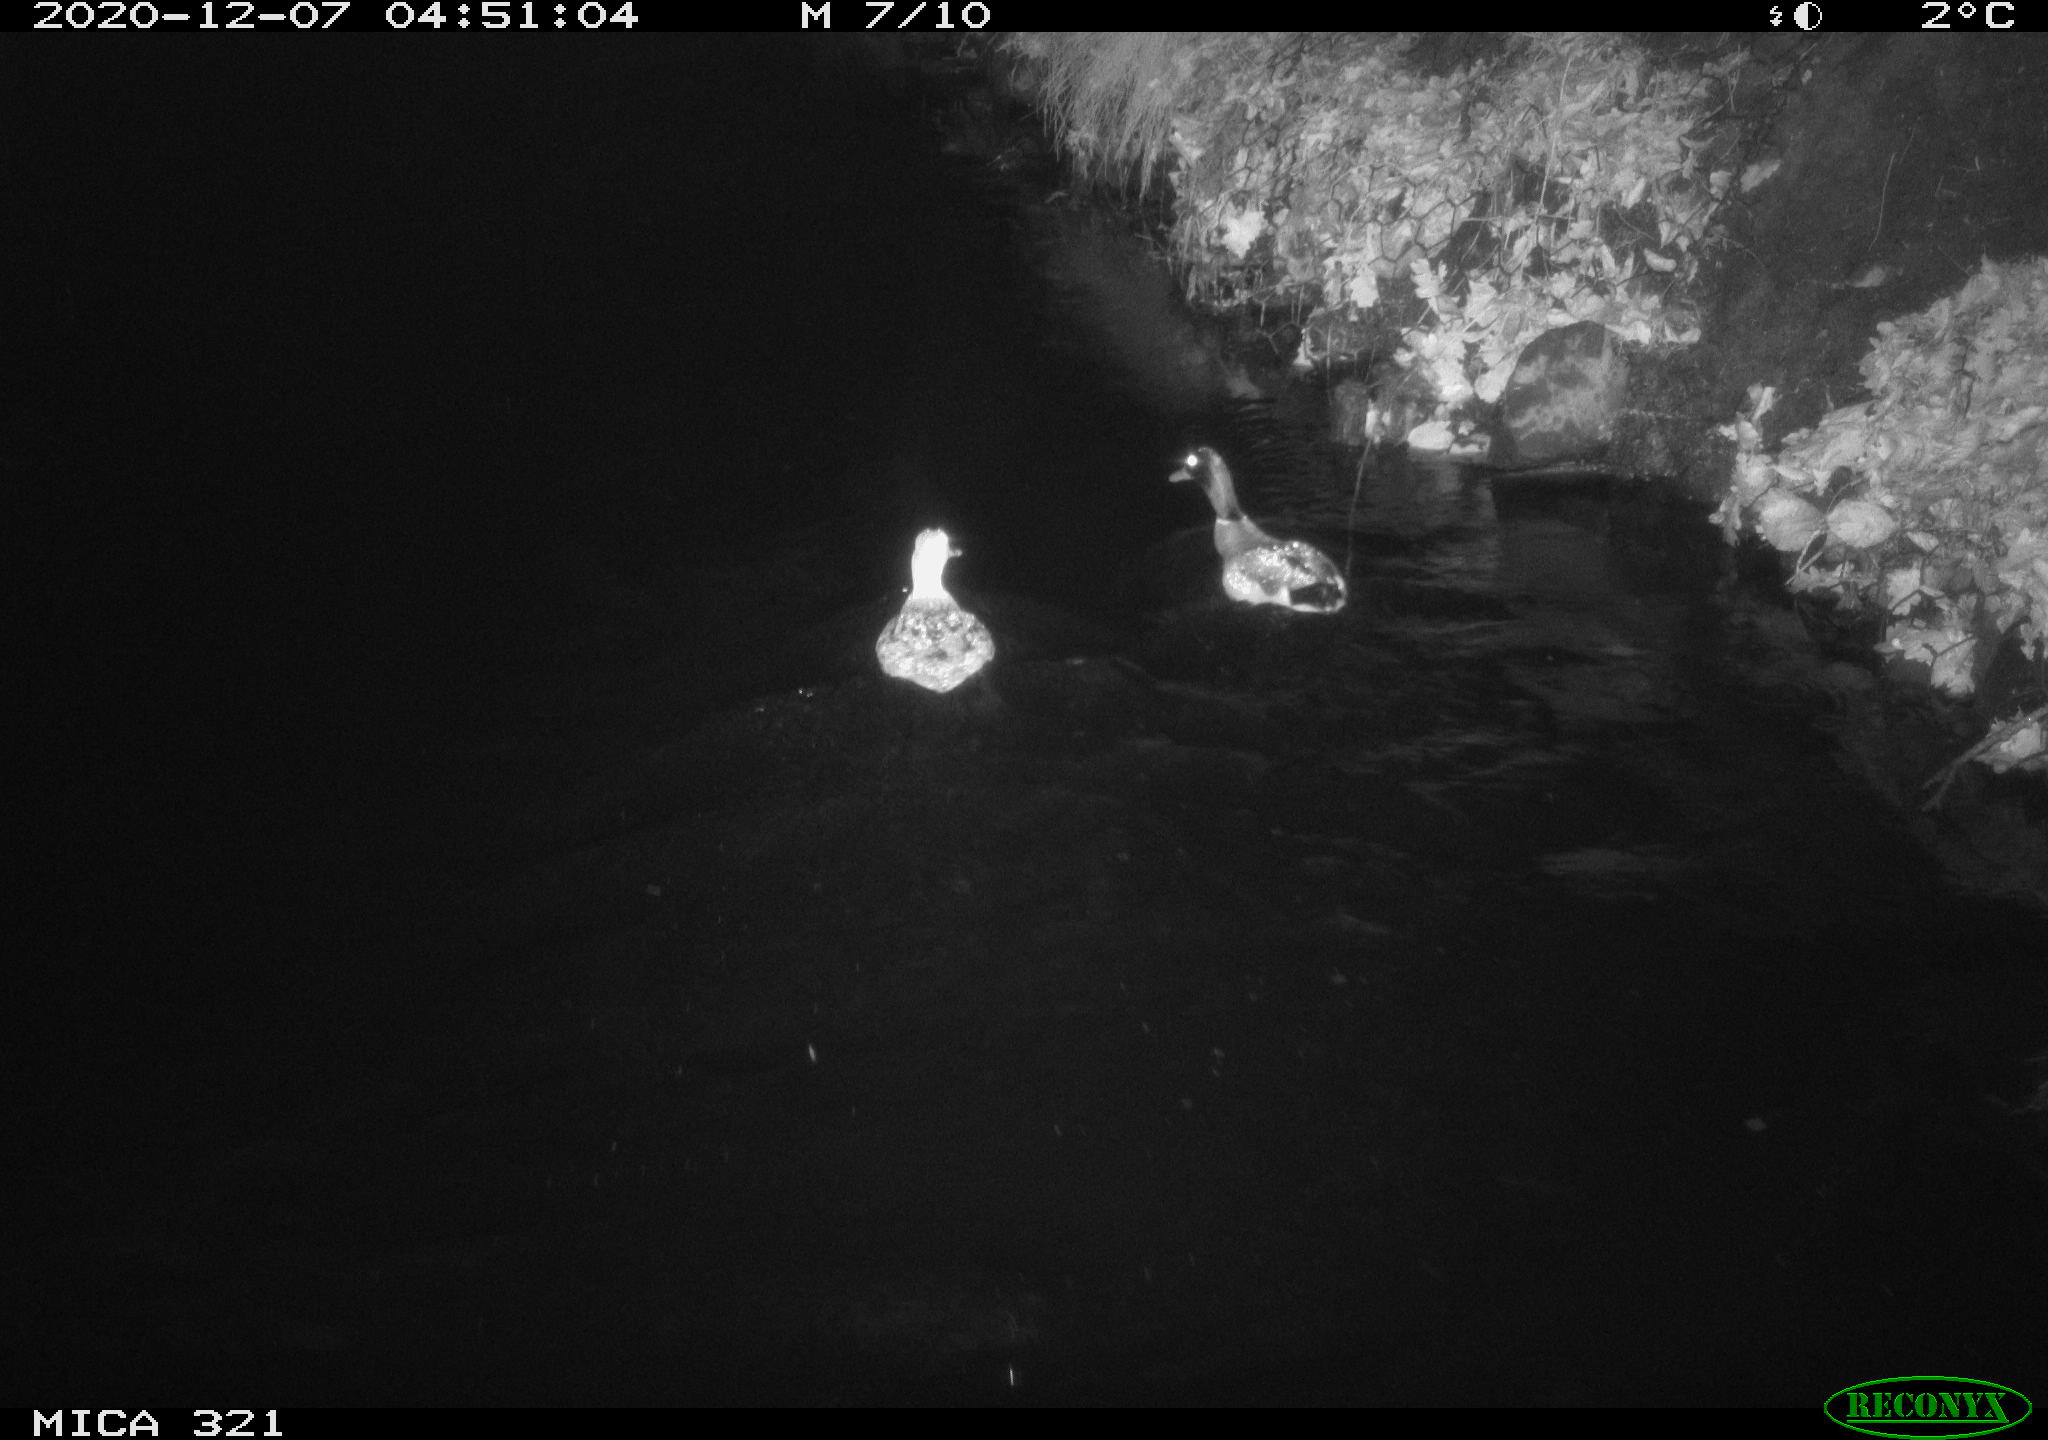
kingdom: Animalia
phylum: Chordata
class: Aves
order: Anseriformes
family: Anatidae
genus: Anas
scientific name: Anas platyrhynchos
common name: Mallard
